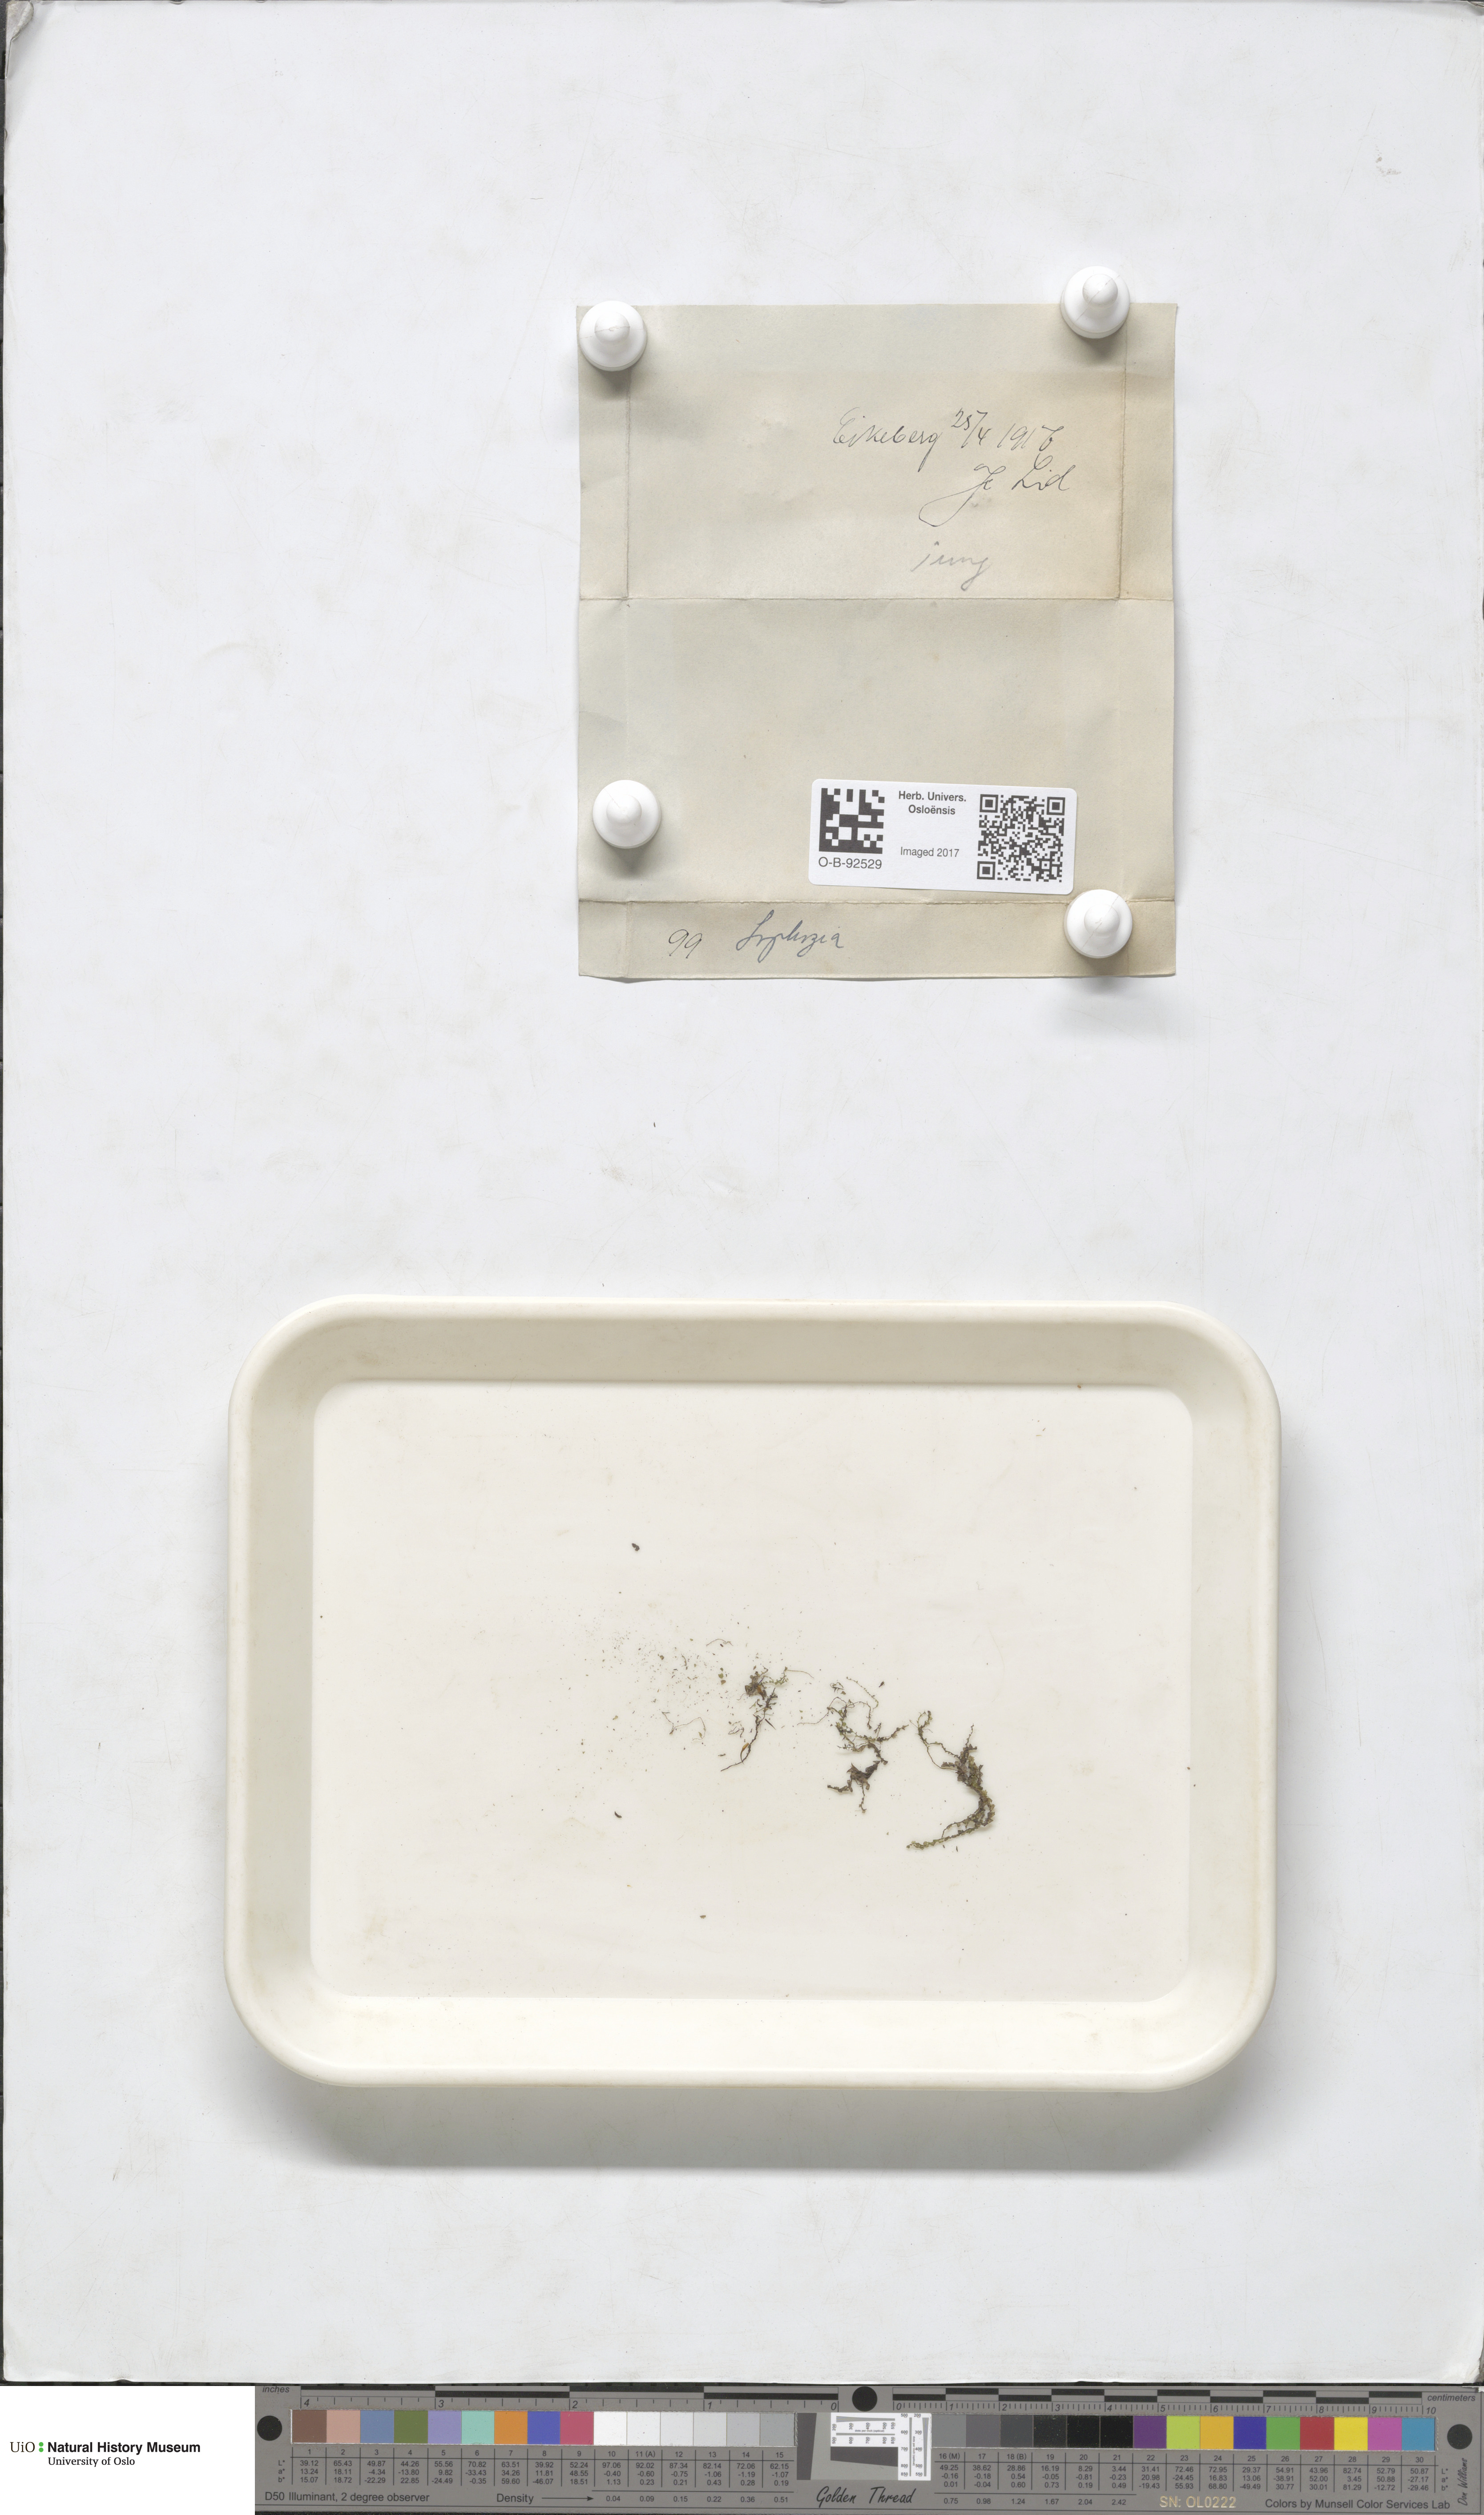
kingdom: Plantae
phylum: Marchantiophyta
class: Jungermanniopsida
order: Jungermanniales
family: Lophoziaceae
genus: Lophozia
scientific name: Lophozia
